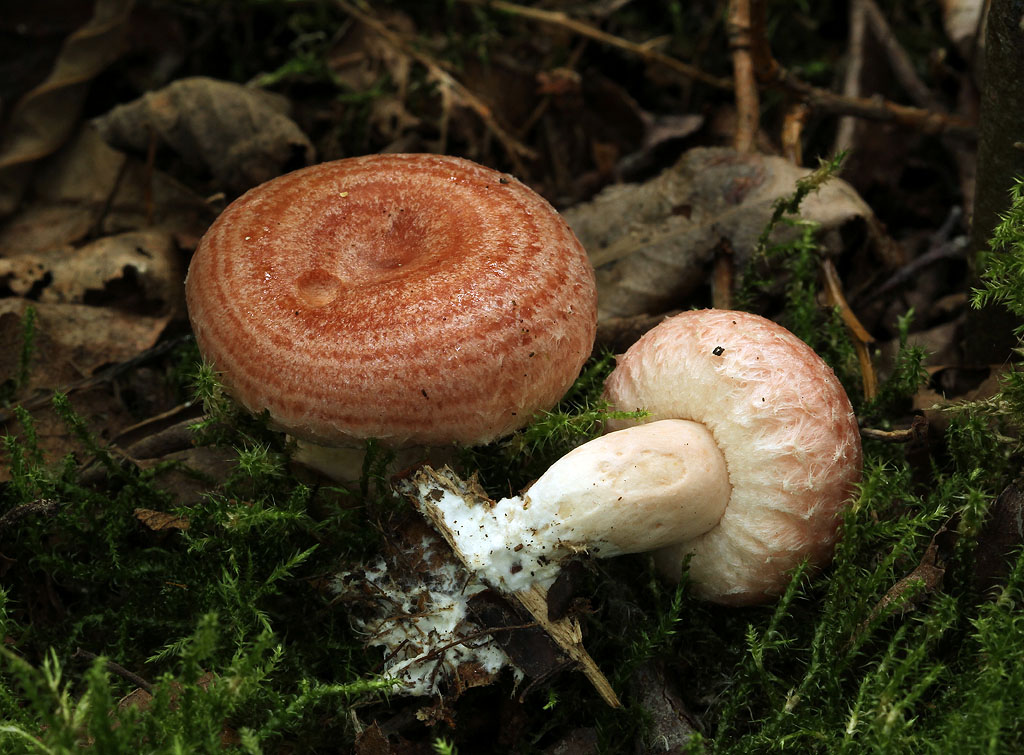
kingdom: Fungi
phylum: Basidiomycota
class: Agaricomycetes
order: Russulales
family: Russulaceae
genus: Lactarius
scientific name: Lactarius torminosus
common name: skægget mælkehat
